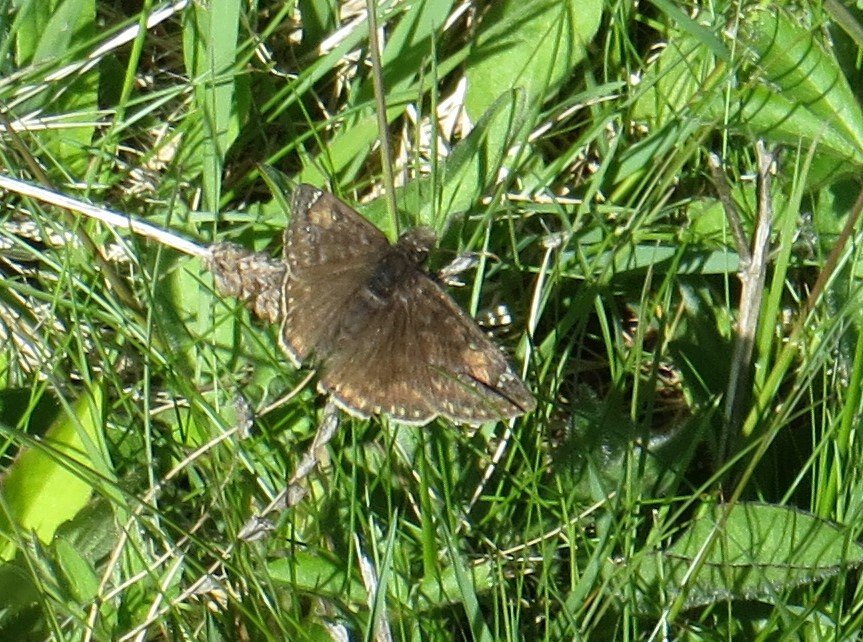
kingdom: Animalia
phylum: Arthropoda
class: Insecta
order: Lepidoptera
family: Hesperiidae
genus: Gesta
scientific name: Gesta
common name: Juvenal's Duskywing
